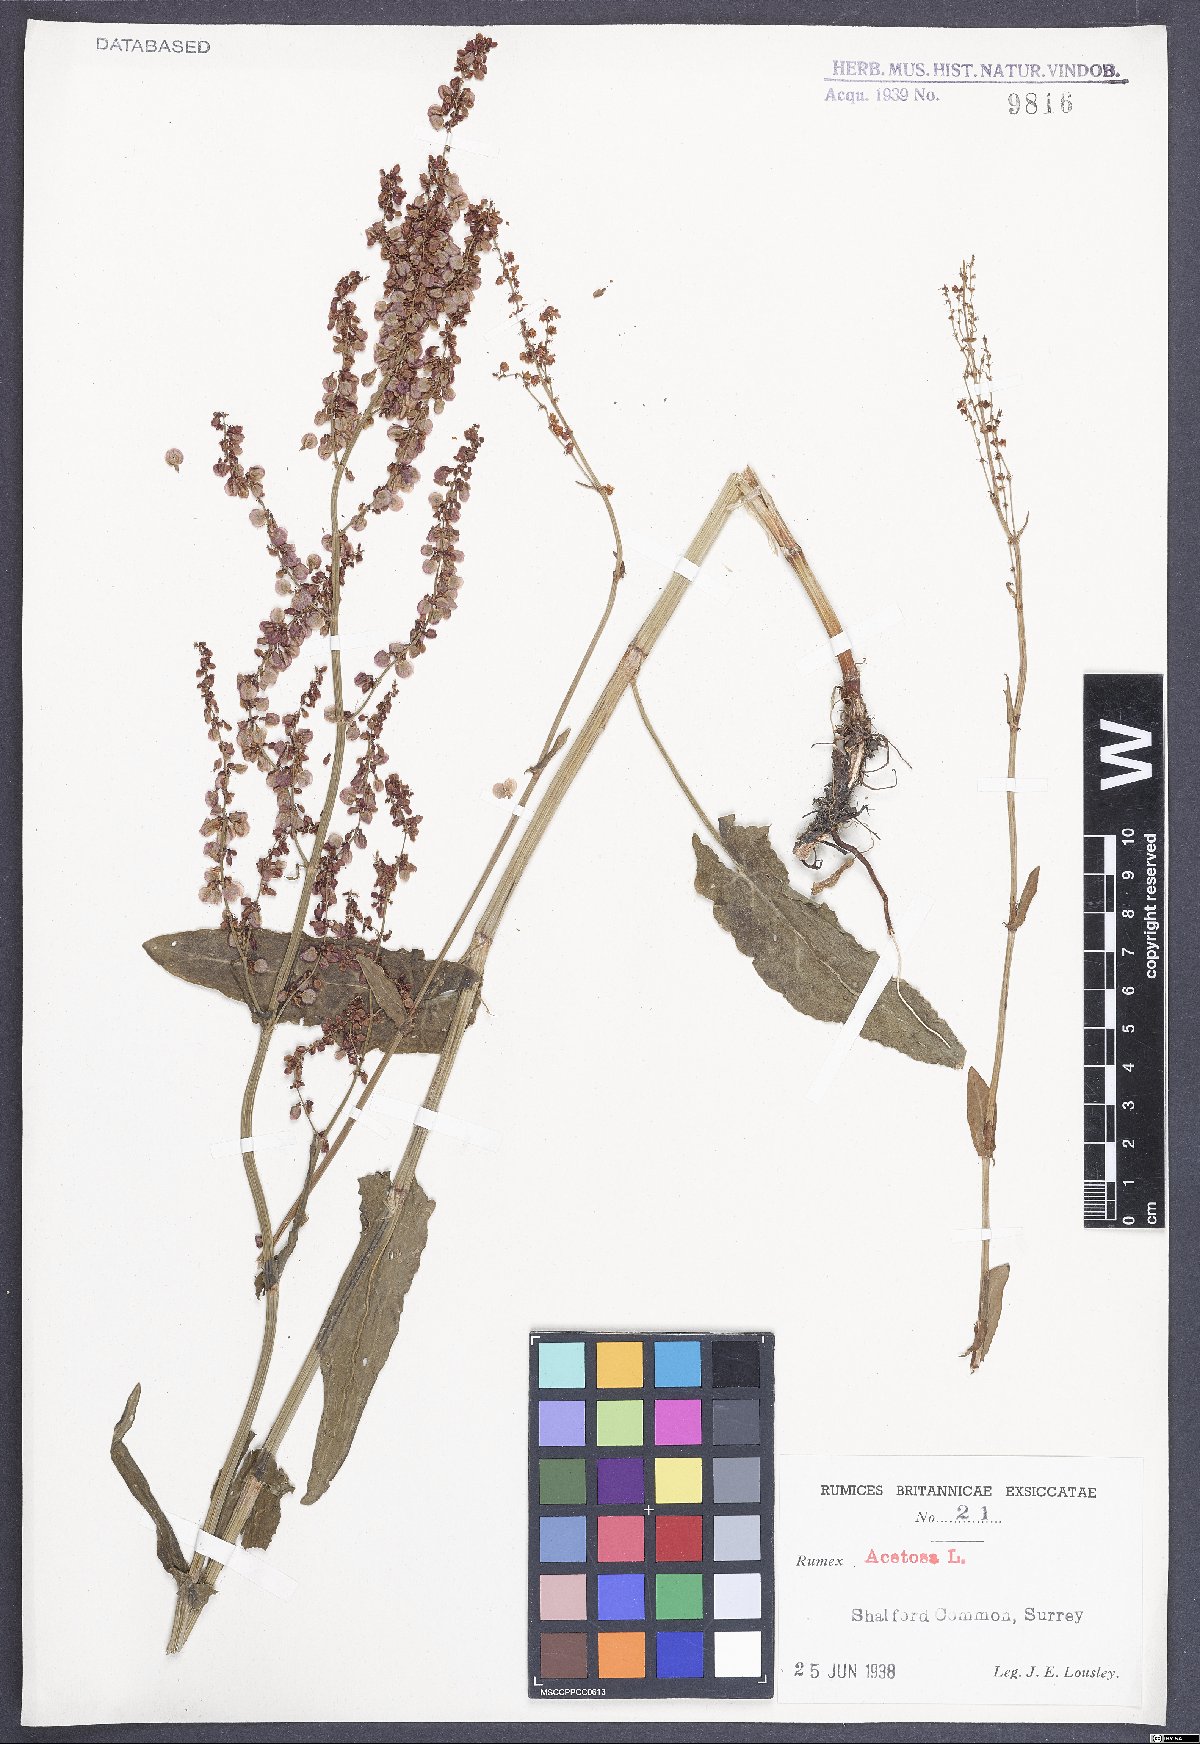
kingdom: Plantae
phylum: Tracheophyta
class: Magnoliopsida
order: Caryophyllales
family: Polygonaceae
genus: Rumex
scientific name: Rumex acetosa
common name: Garden sorrel
